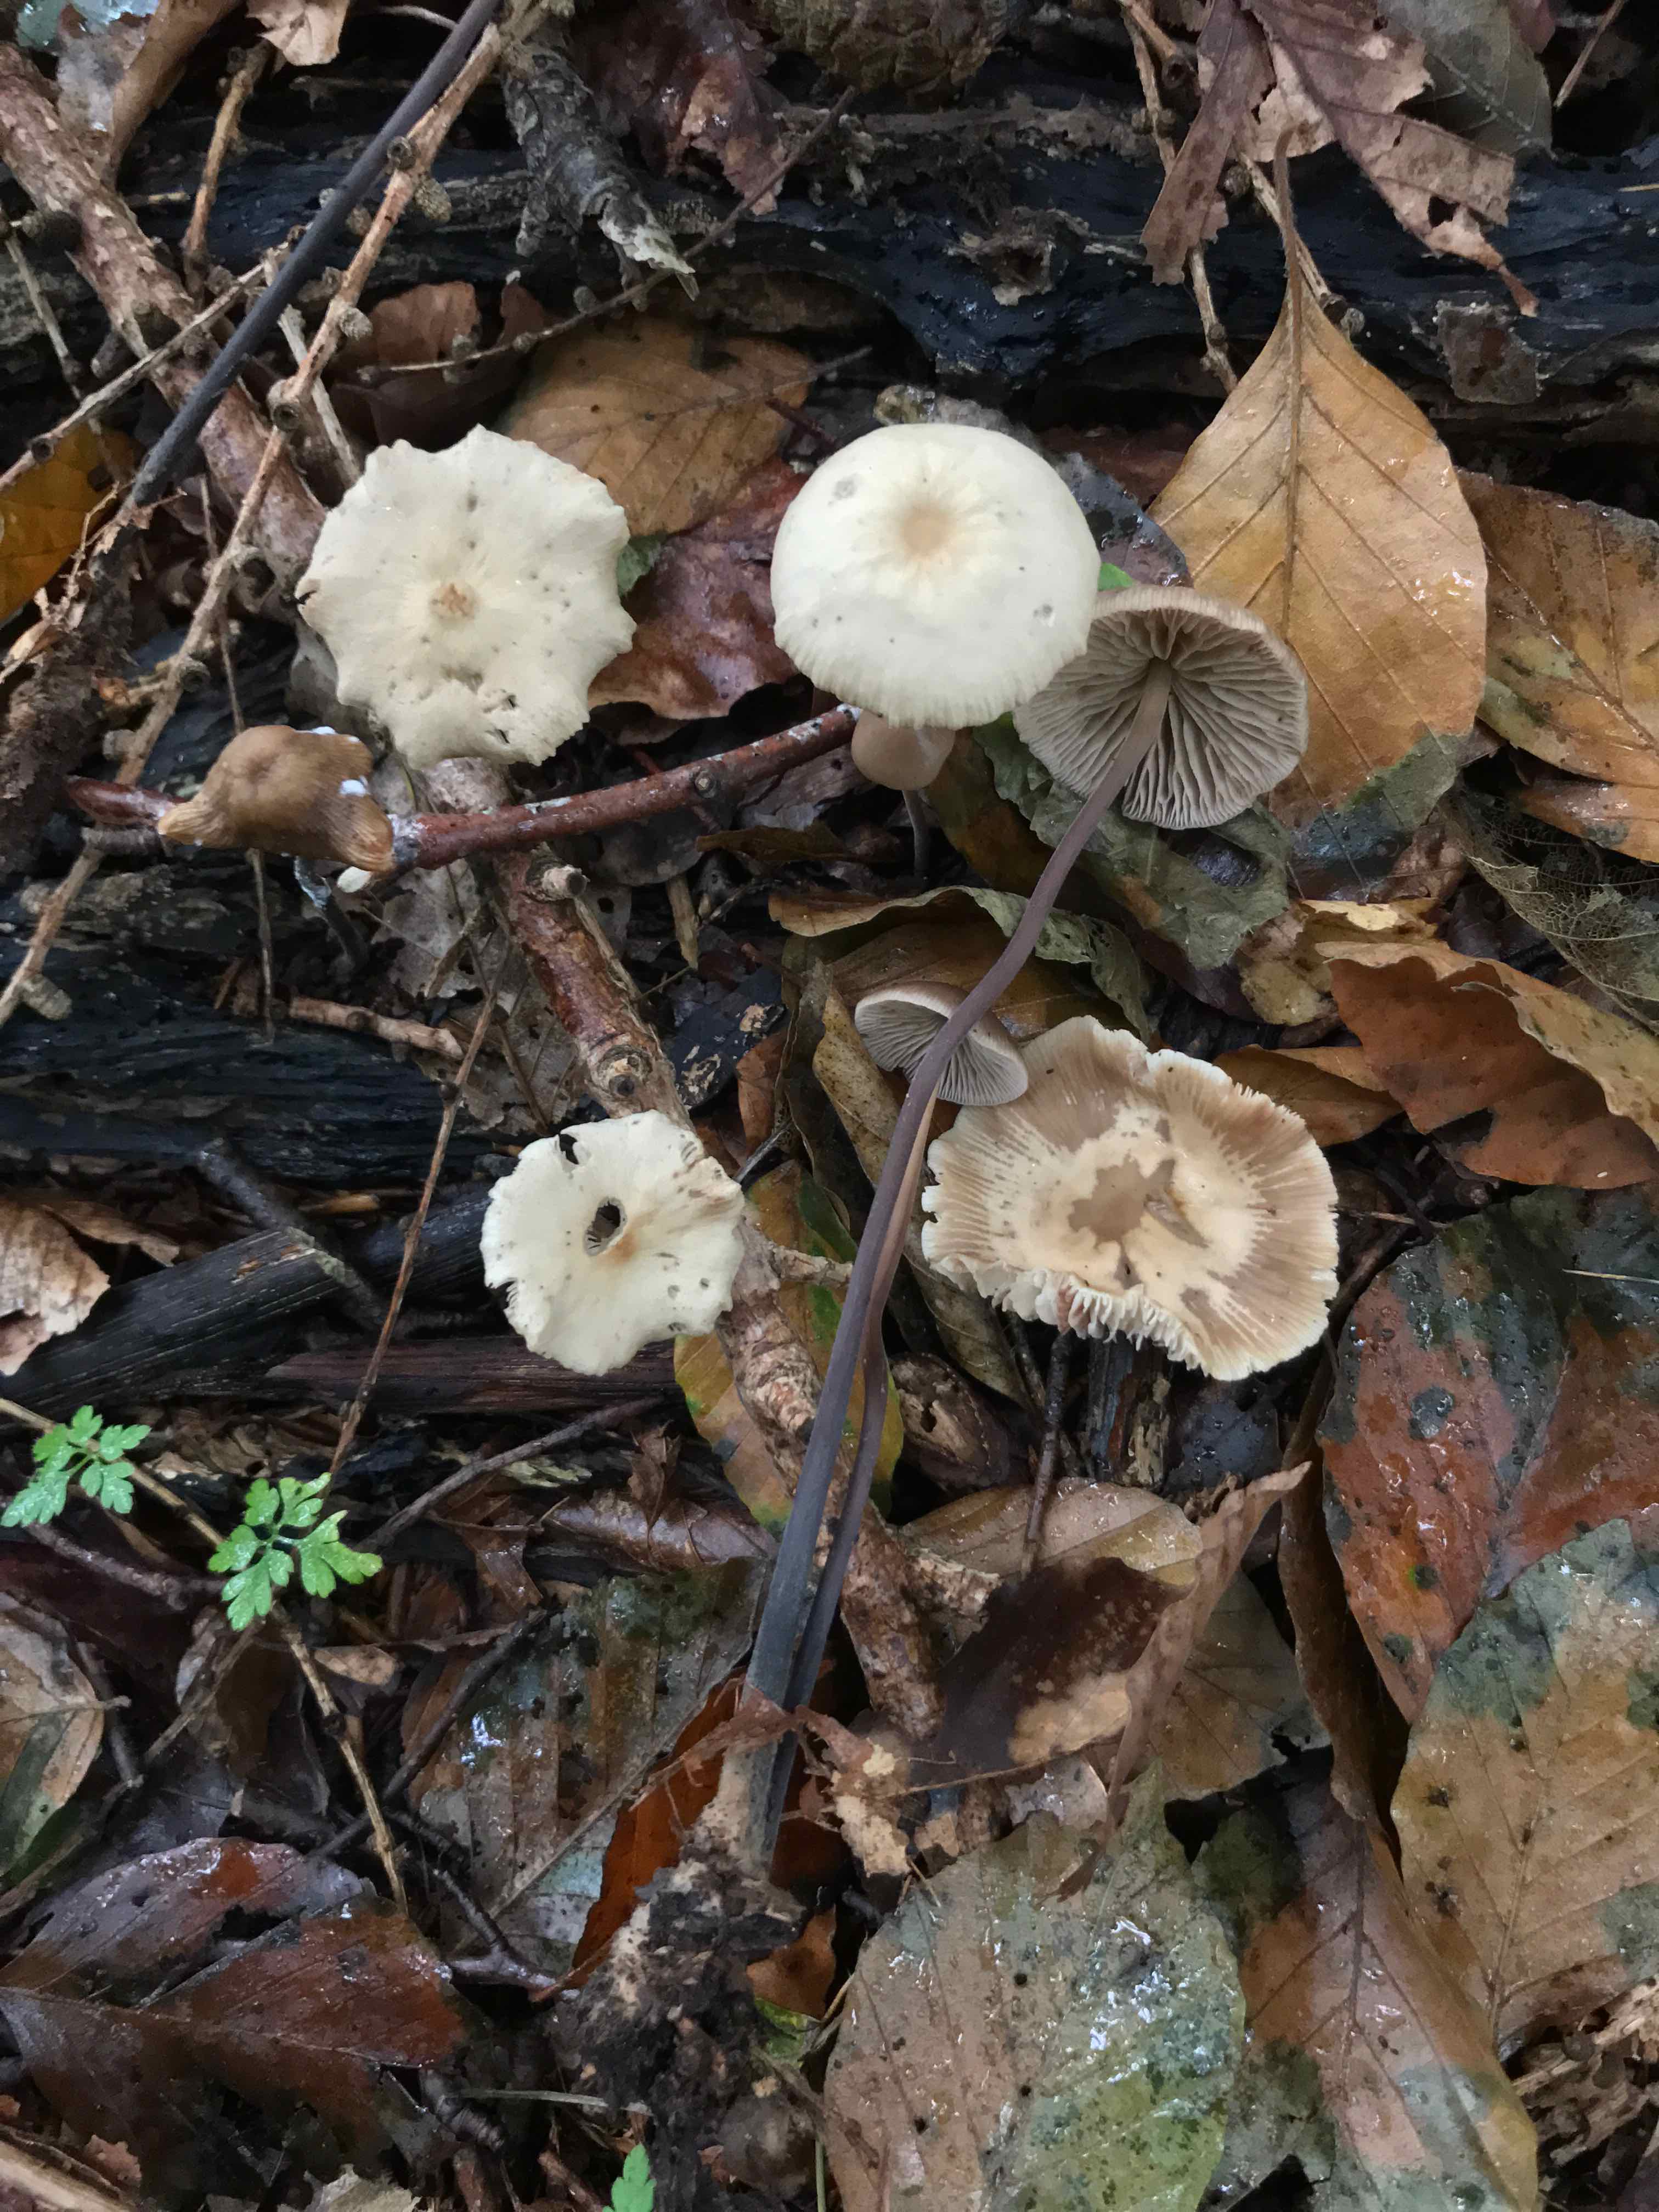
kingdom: Fungi
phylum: Basidiomycota
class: Agaricomycetes
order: Agaricales
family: Omphalotaceae
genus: Mycetinis
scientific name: Mycetinis alliaceus
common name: stor løghat
